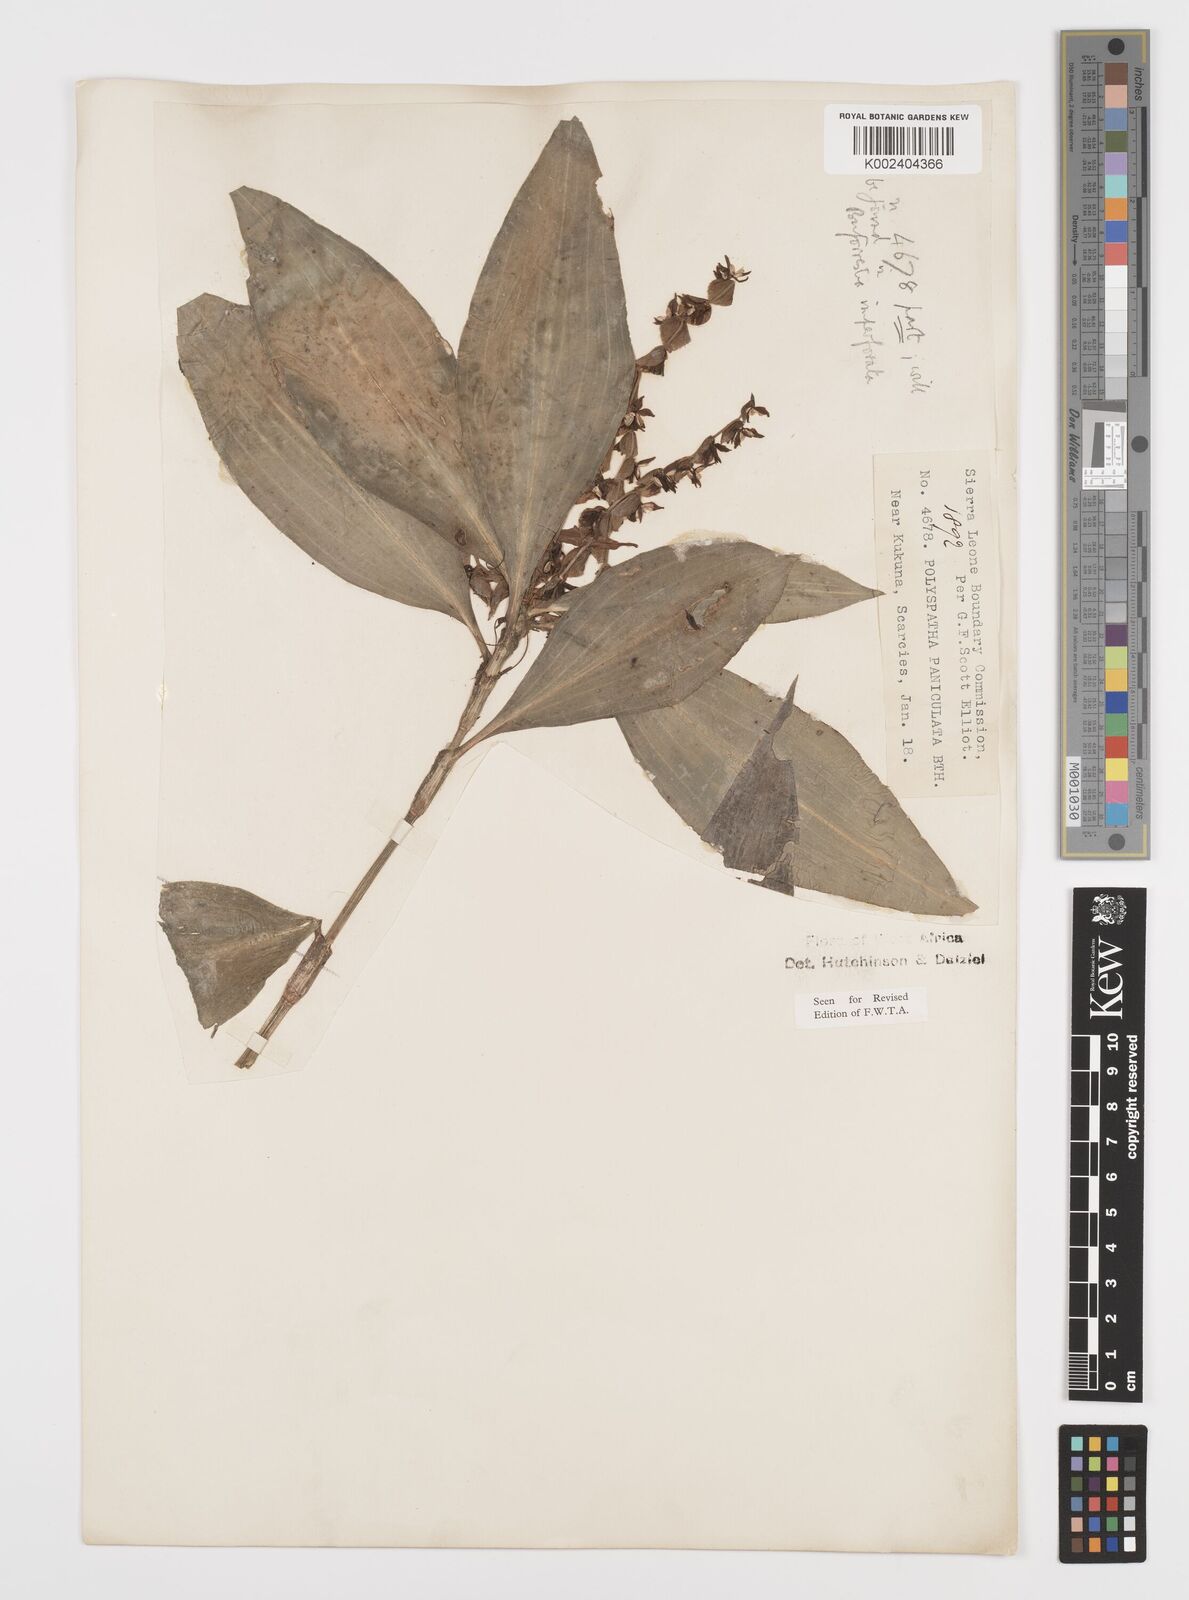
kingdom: Plantae
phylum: Tracheophyta
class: Liliopsida
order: Commelinales
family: Commelinaceae
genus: Polyspatha
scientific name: Polyspatha paniculata
